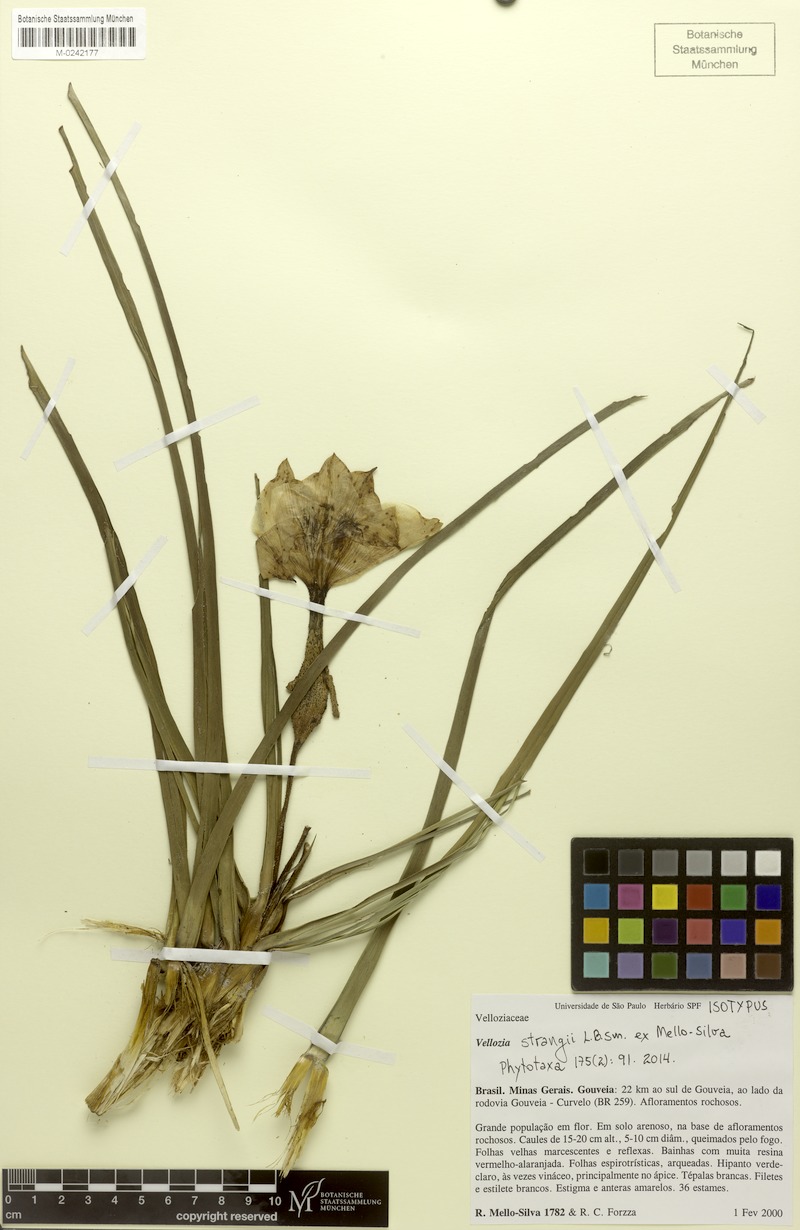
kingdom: Plantae
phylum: Tracheophyta
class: Liliopsida
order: Pandanales
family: Velloziaceae
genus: Vellozia
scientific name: Vellozia strangii
